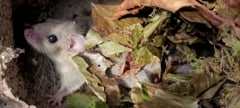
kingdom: Animalia
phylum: Chordata
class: Mammalia
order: Rodentia
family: Gliridae
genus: Glis
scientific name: Glis glis
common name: Fat dormouse
